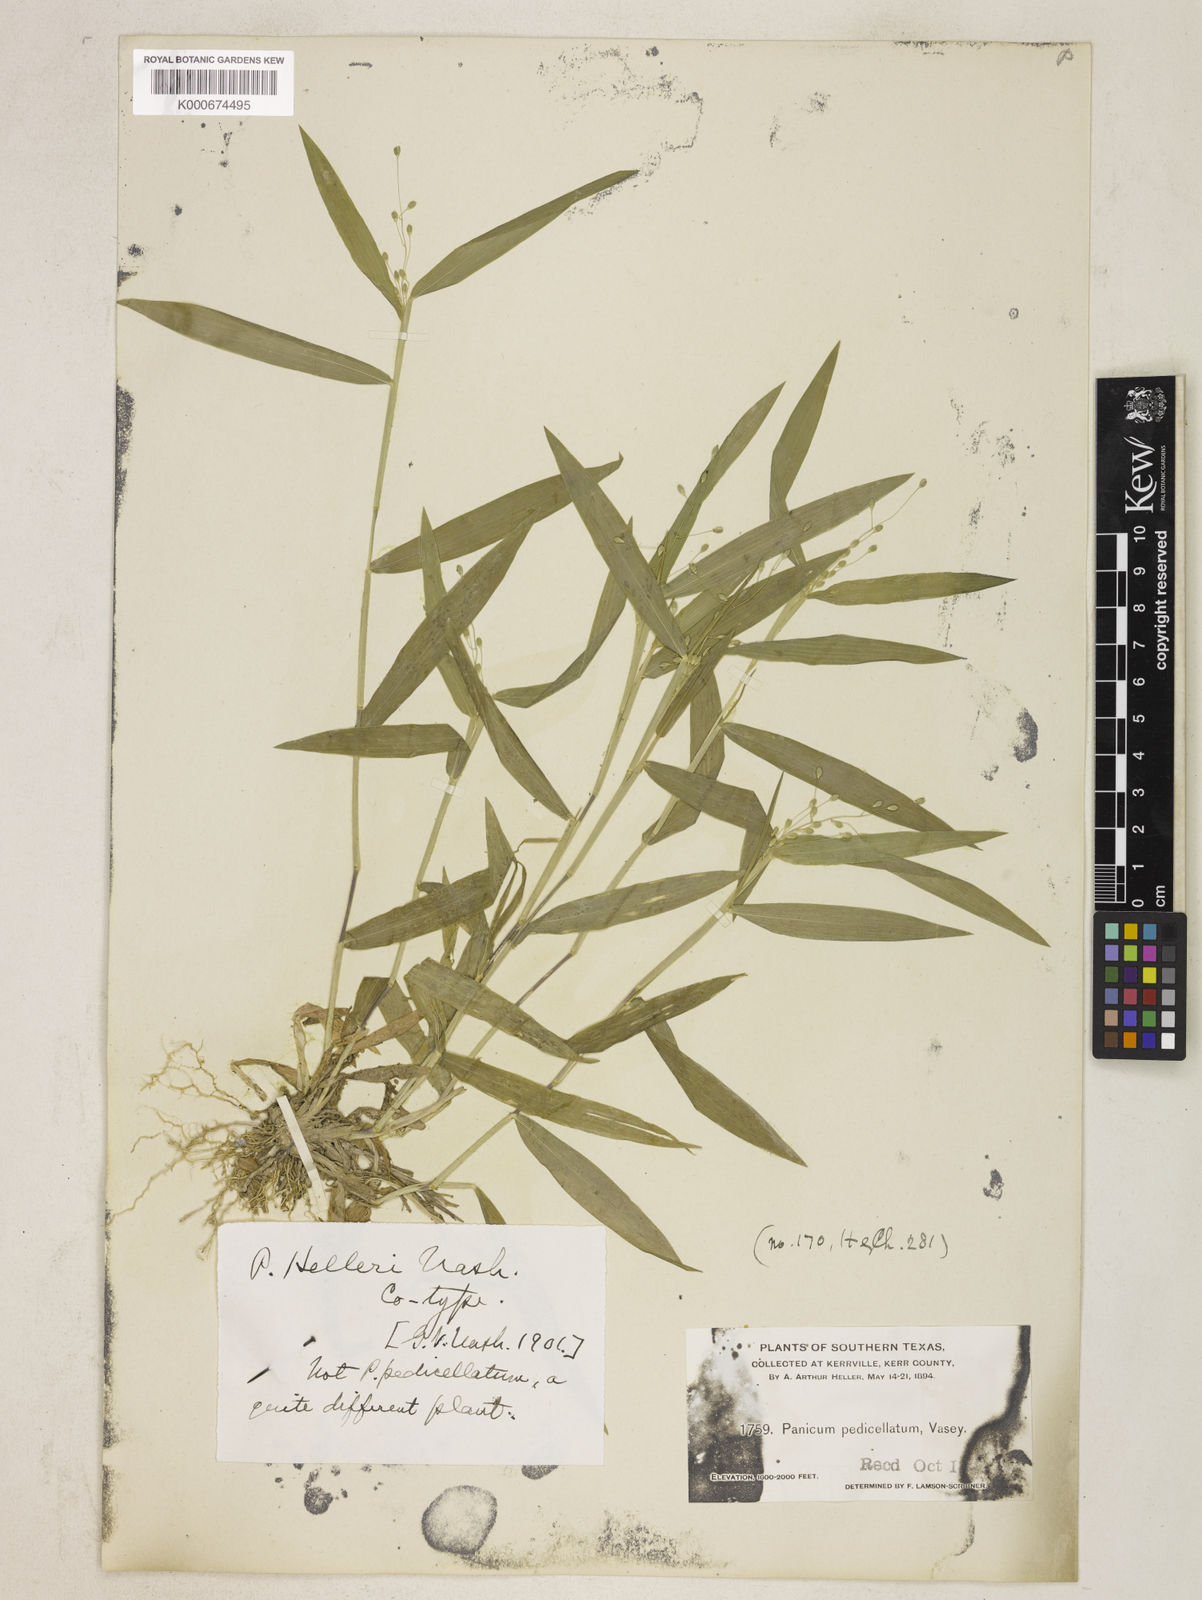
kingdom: Plantae
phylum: Tracheophyta
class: Liliopsida
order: Poales
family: Poaceae
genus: Dichanthelium
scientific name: Dichanthelium oligosanthes
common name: Few-anther obscuregrass
